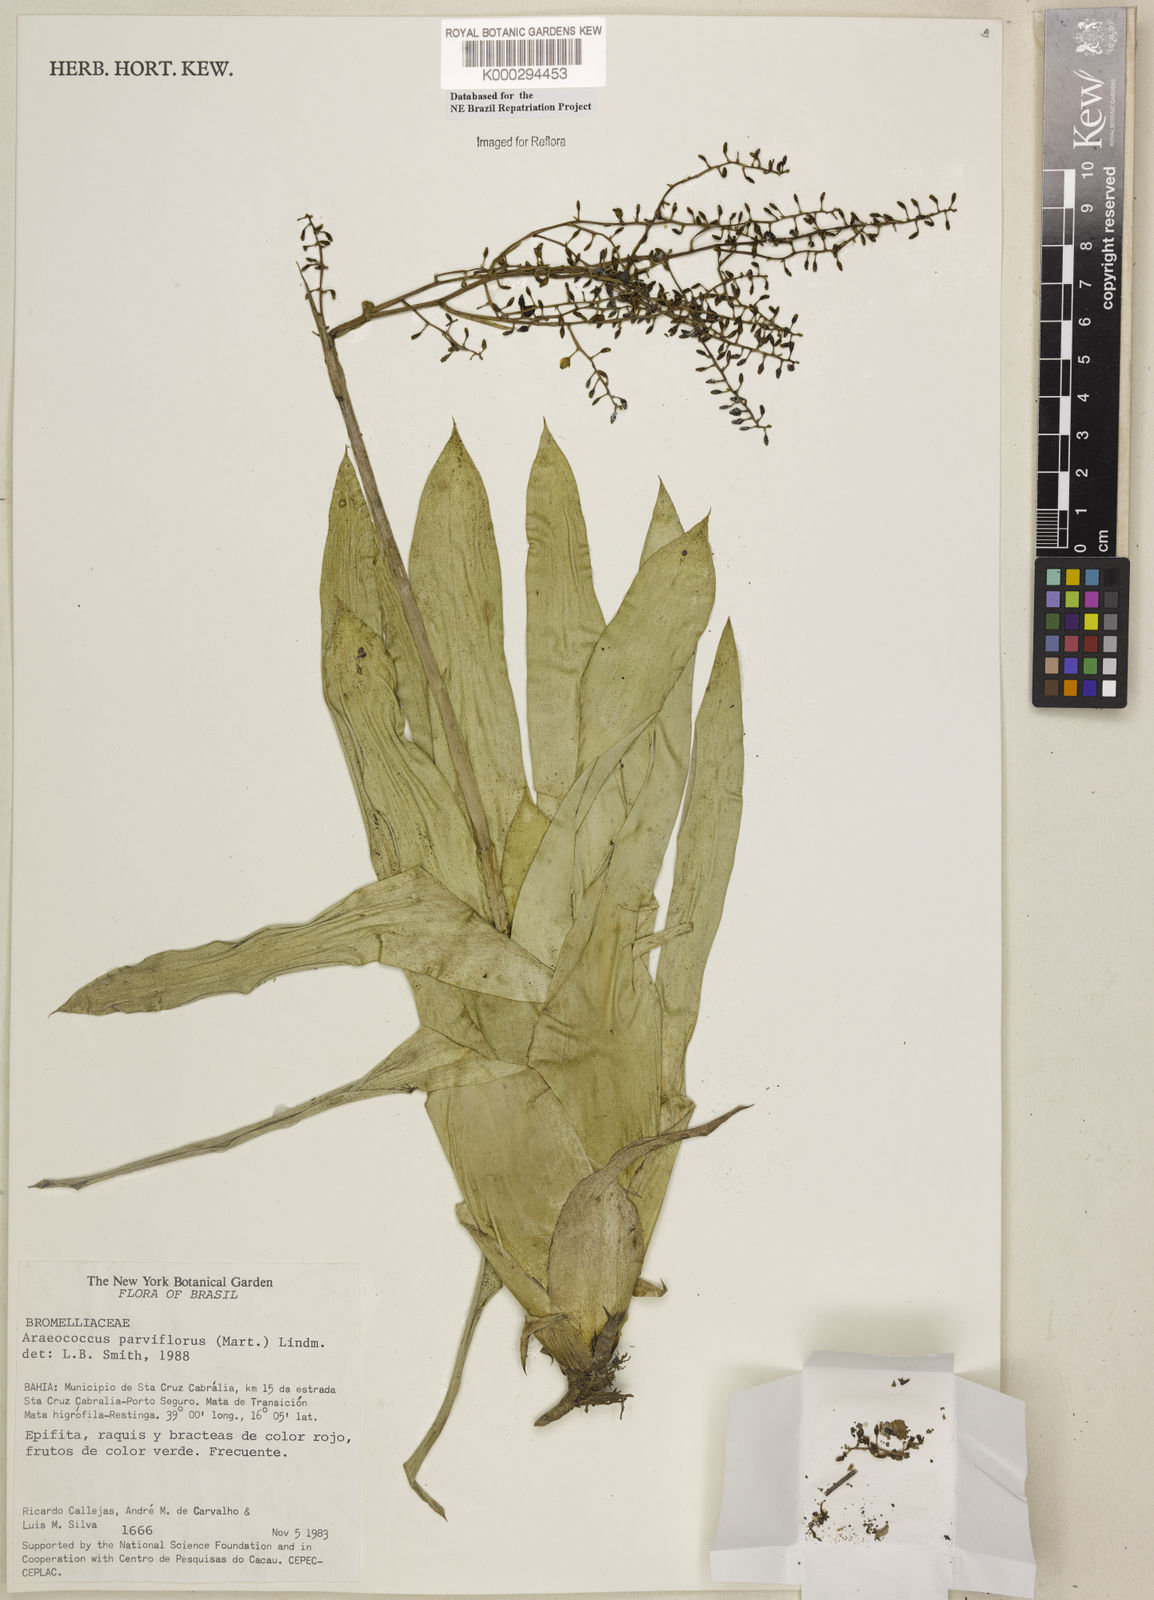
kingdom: Plantae
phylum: Tracheophyta
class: Liliopsida
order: Poales
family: Bromeliaceae
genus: Pseudaraeococcus
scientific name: Pseudaraeococcus parviflorus
